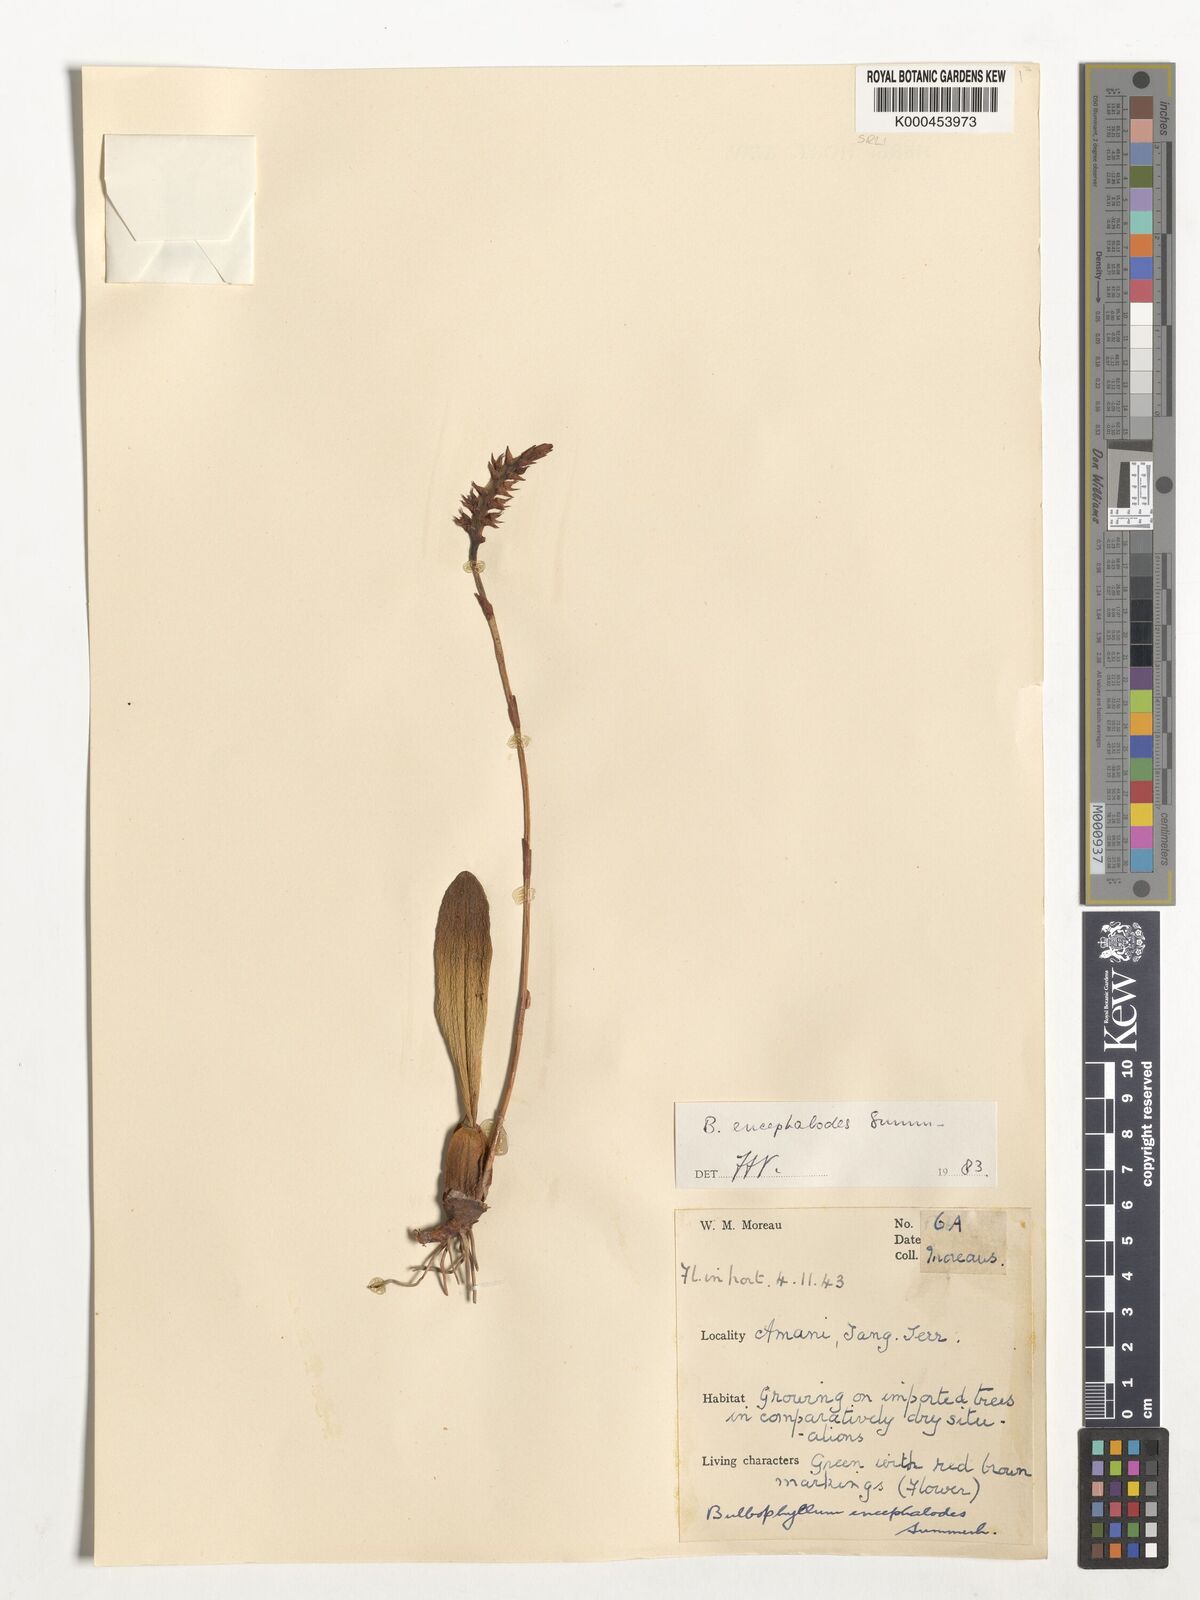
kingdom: Plantae
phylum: Tracheophyta
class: Liliopsida
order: Asparagales
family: Orchidaceae
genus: Bulbophyllum
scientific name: Bulbophyllum encephalodes
